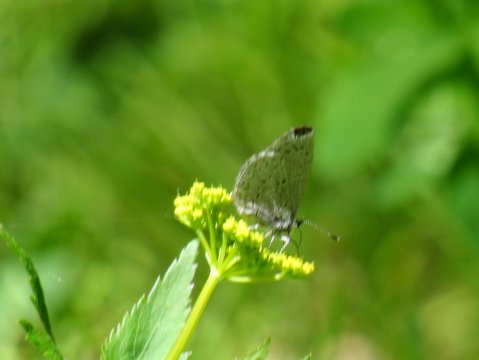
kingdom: Animalia
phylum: Arthropoda
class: Insecta
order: Lepidoptera
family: Lycaenidae
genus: Celastrina
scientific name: Celastrina lucia
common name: Northern Spring Azure
